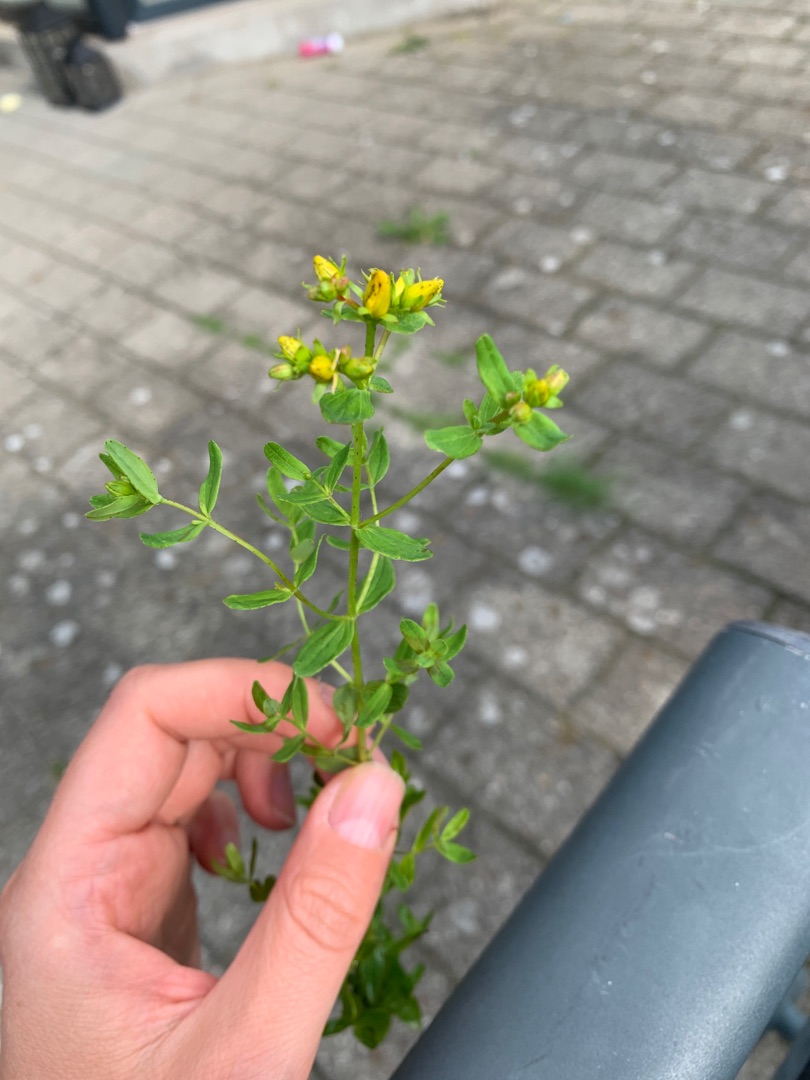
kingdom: Plantae
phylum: Tracheophyta
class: Magnoliopsida
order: Malpighiales
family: Hypericaceae
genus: Hypericum
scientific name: Hypericum perforatum
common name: Prikbladet perikon
